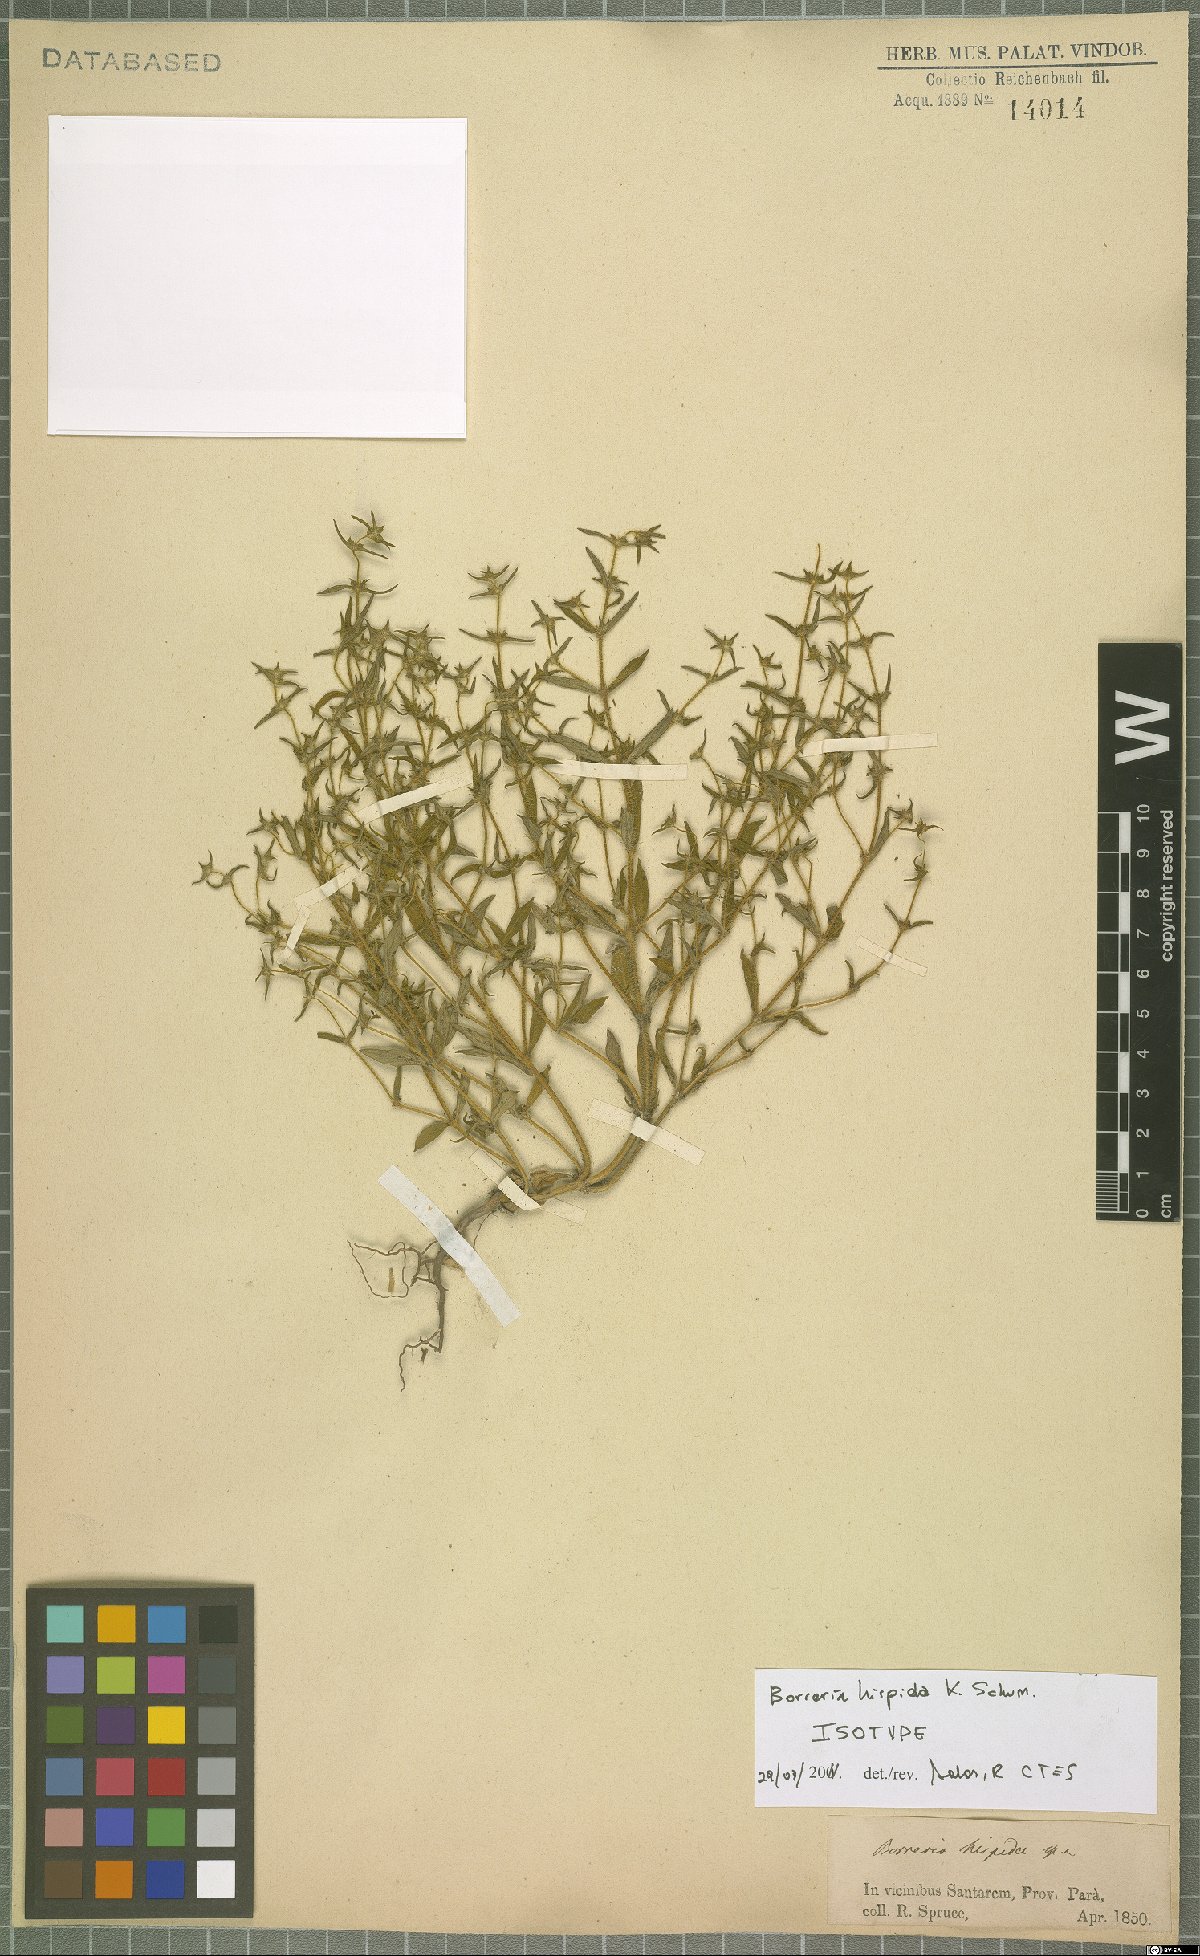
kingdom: Plantae
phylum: Tracheophyta
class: Magnoliopsida
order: Gentianales
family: Rubiaceae
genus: Spermacoce
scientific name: Spermacoce hispida
